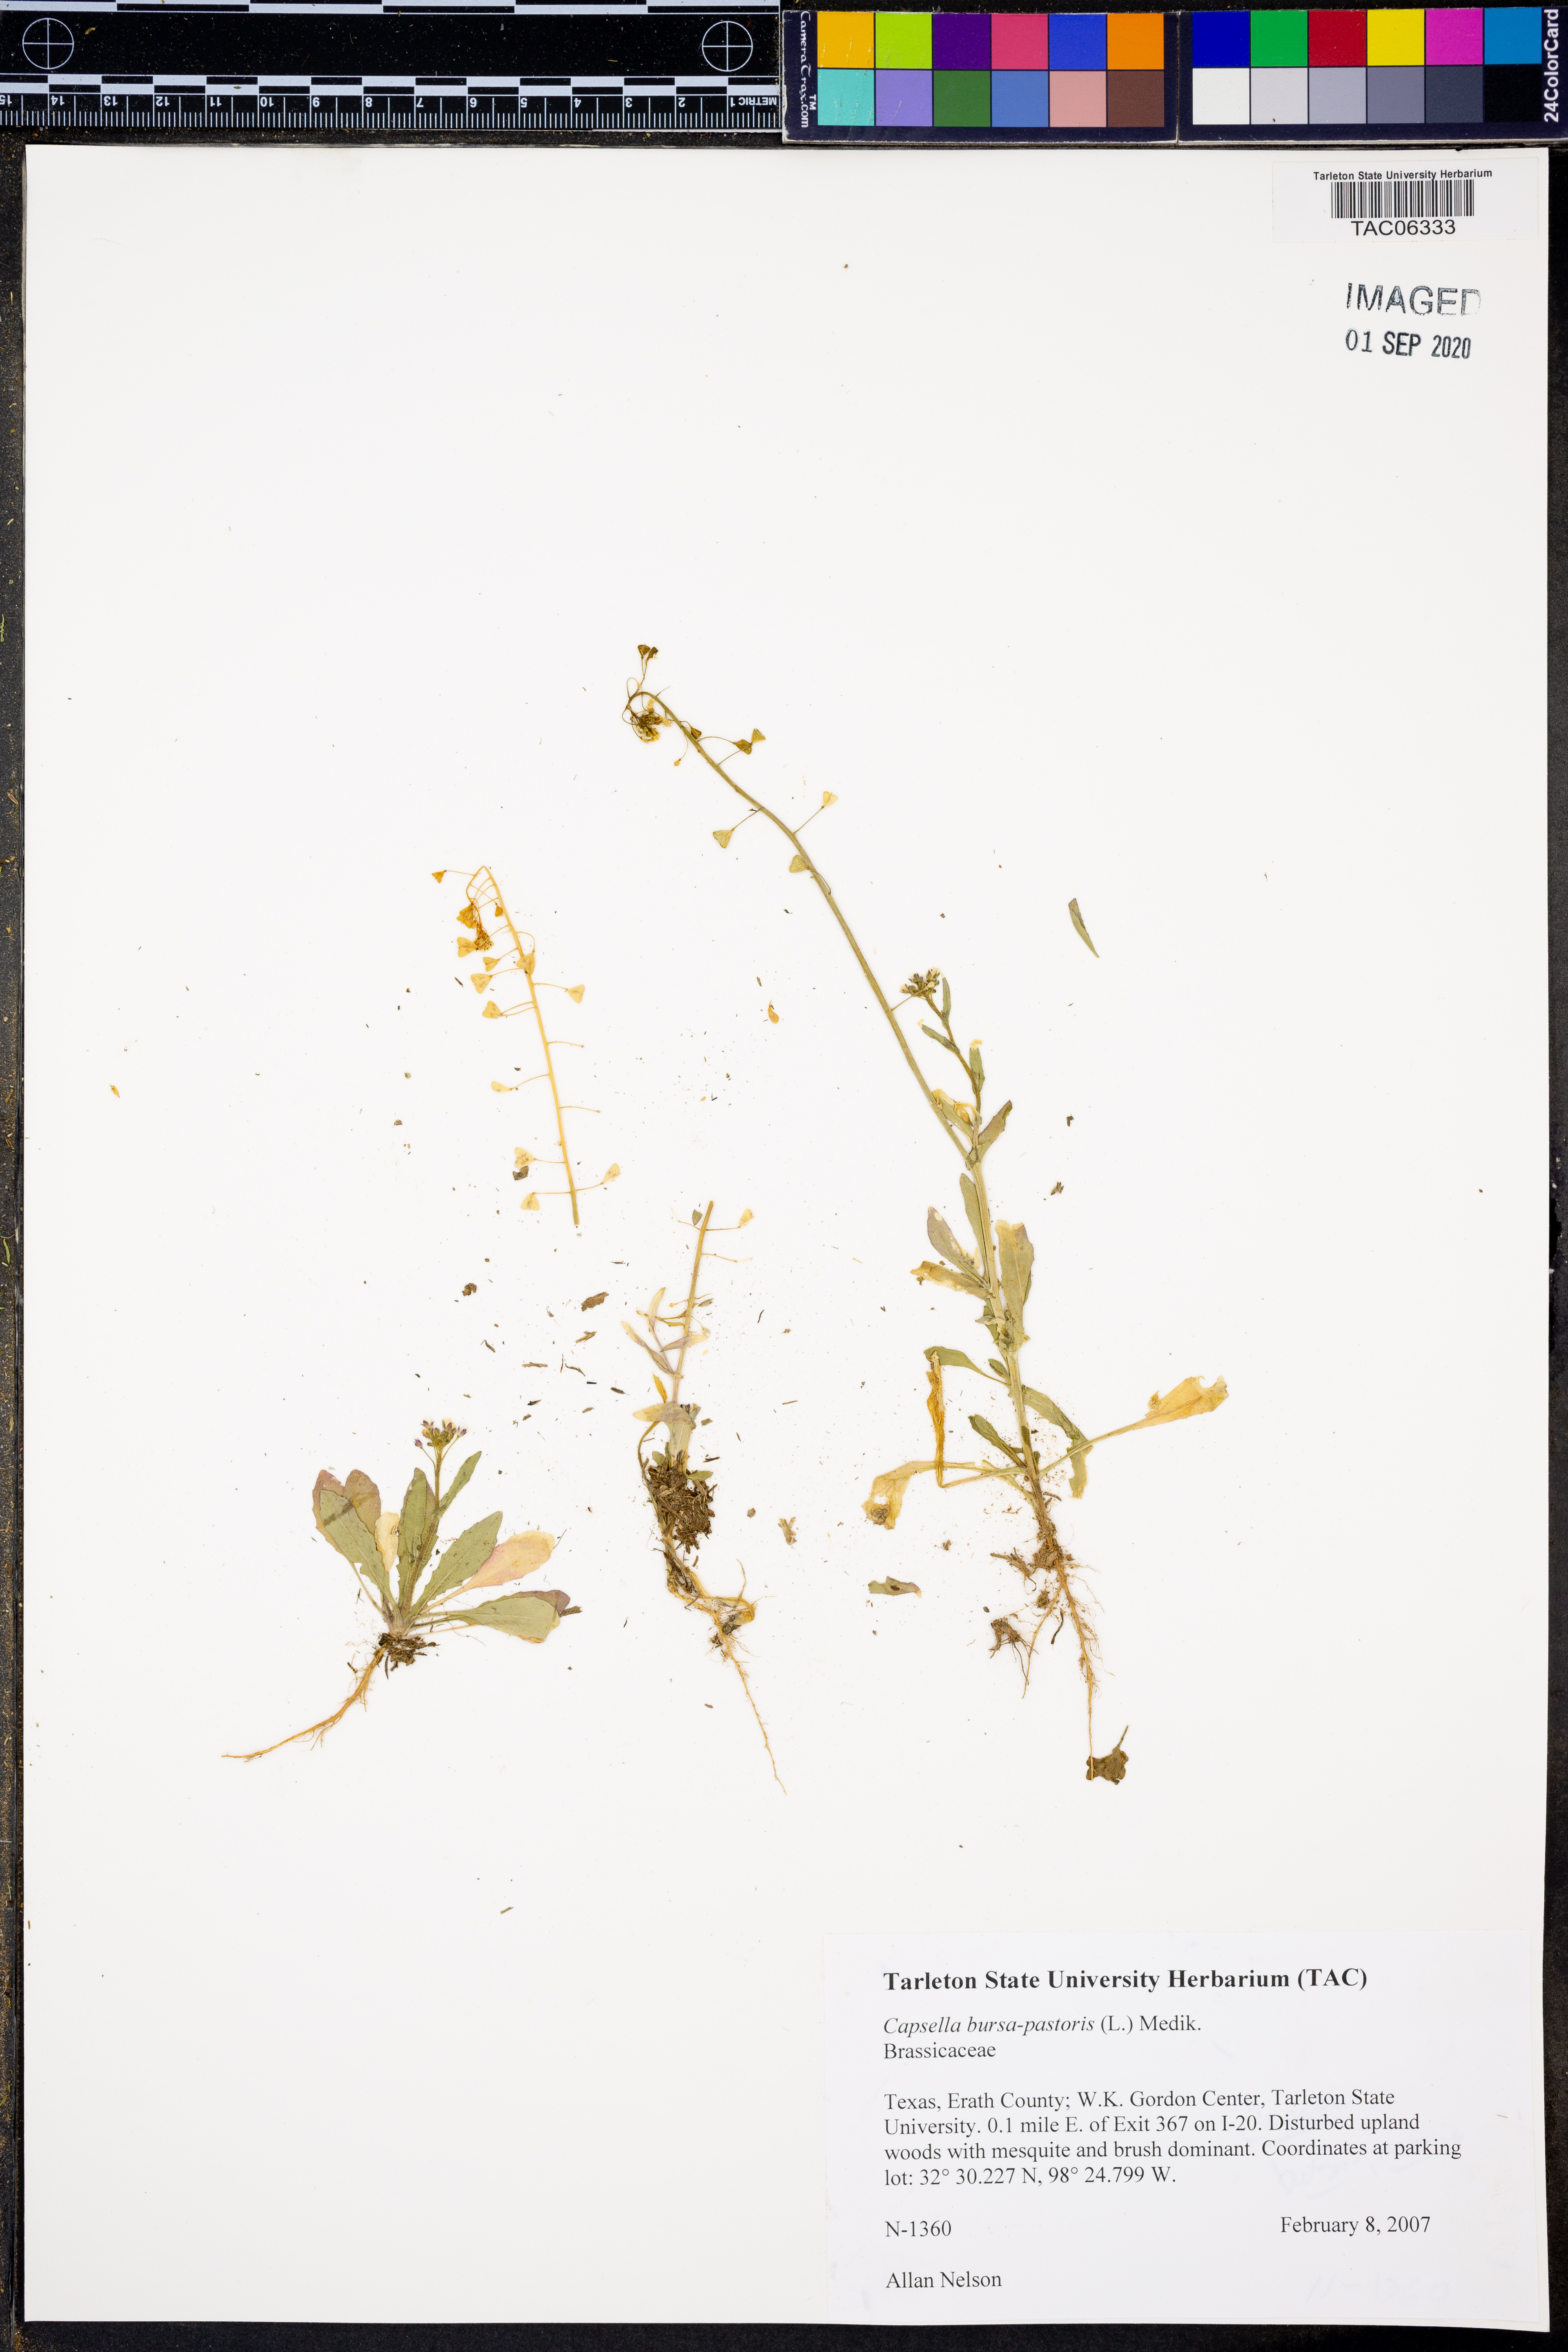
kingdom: Plantae
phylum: Tracheophyta
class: Magnoliopsida
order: Brassicales
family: Brassicaceae
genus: Capsella
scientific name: Capsella bursa-pastoris
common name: Shepherd's purse
